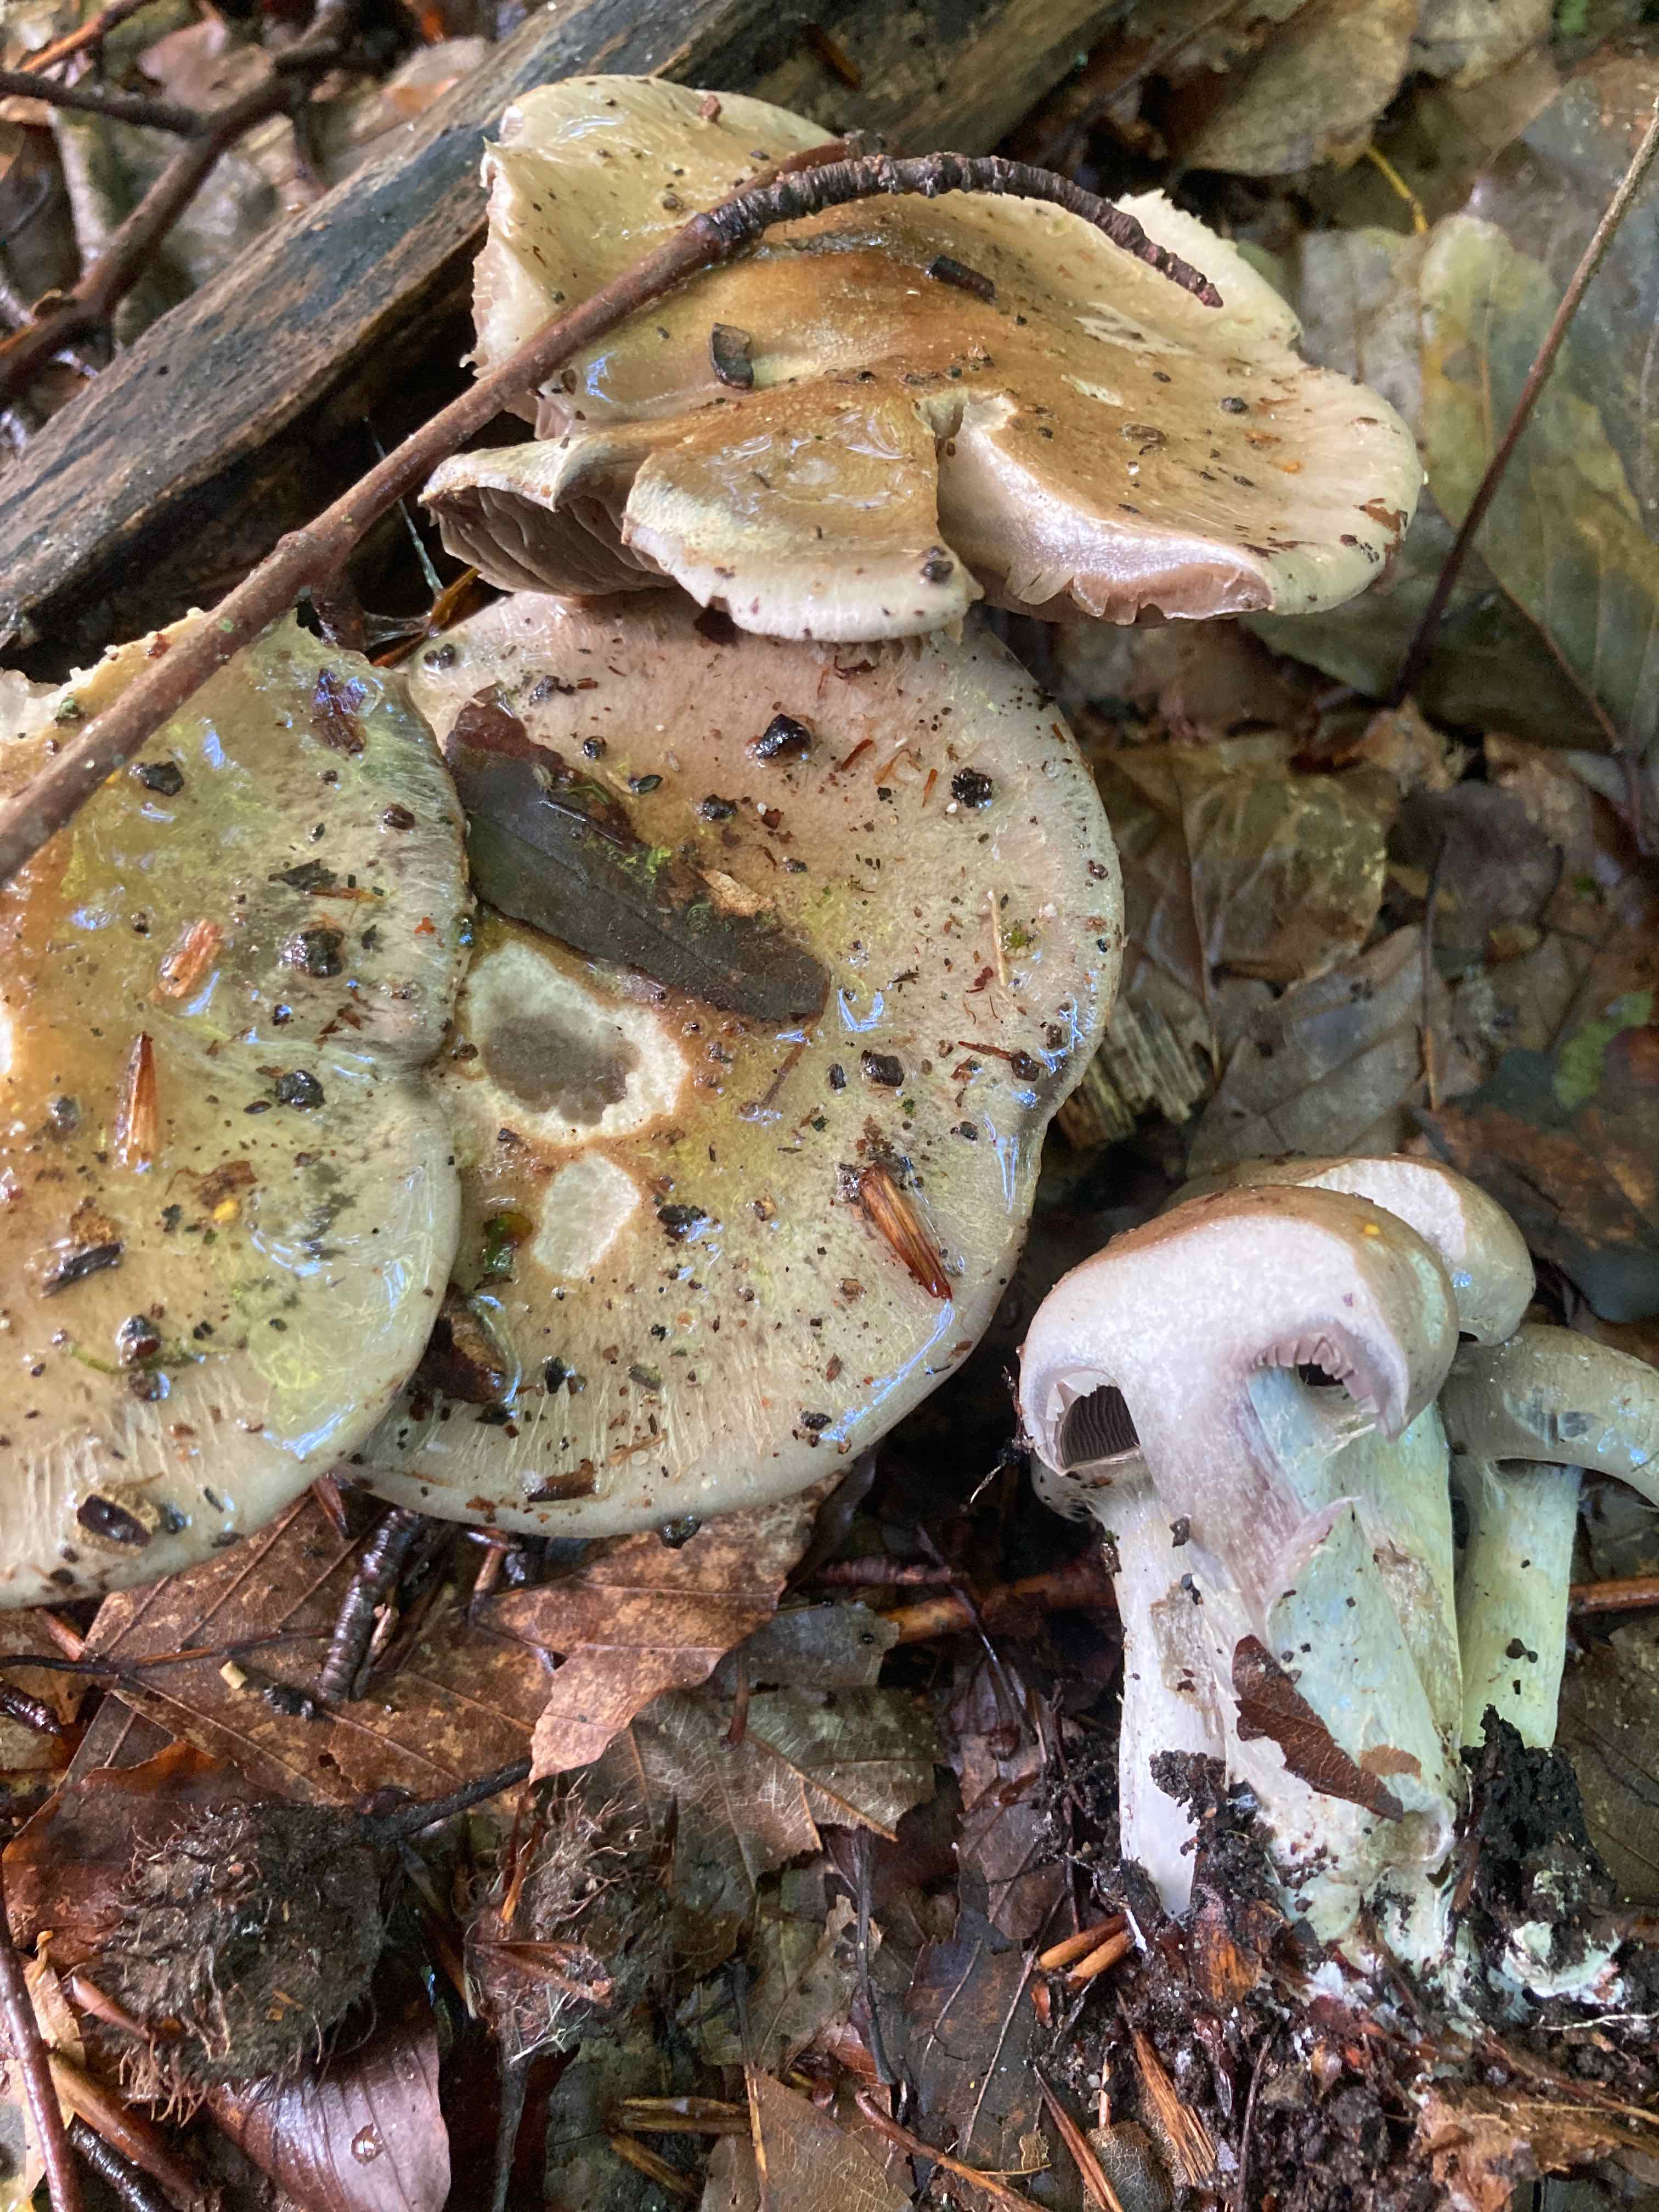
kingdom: Fungi
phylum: Basidiomycota
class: Agaricomycetes
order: Agaricales
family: Cortinariaceae
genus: Cortinarius
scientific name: Cortinarius
